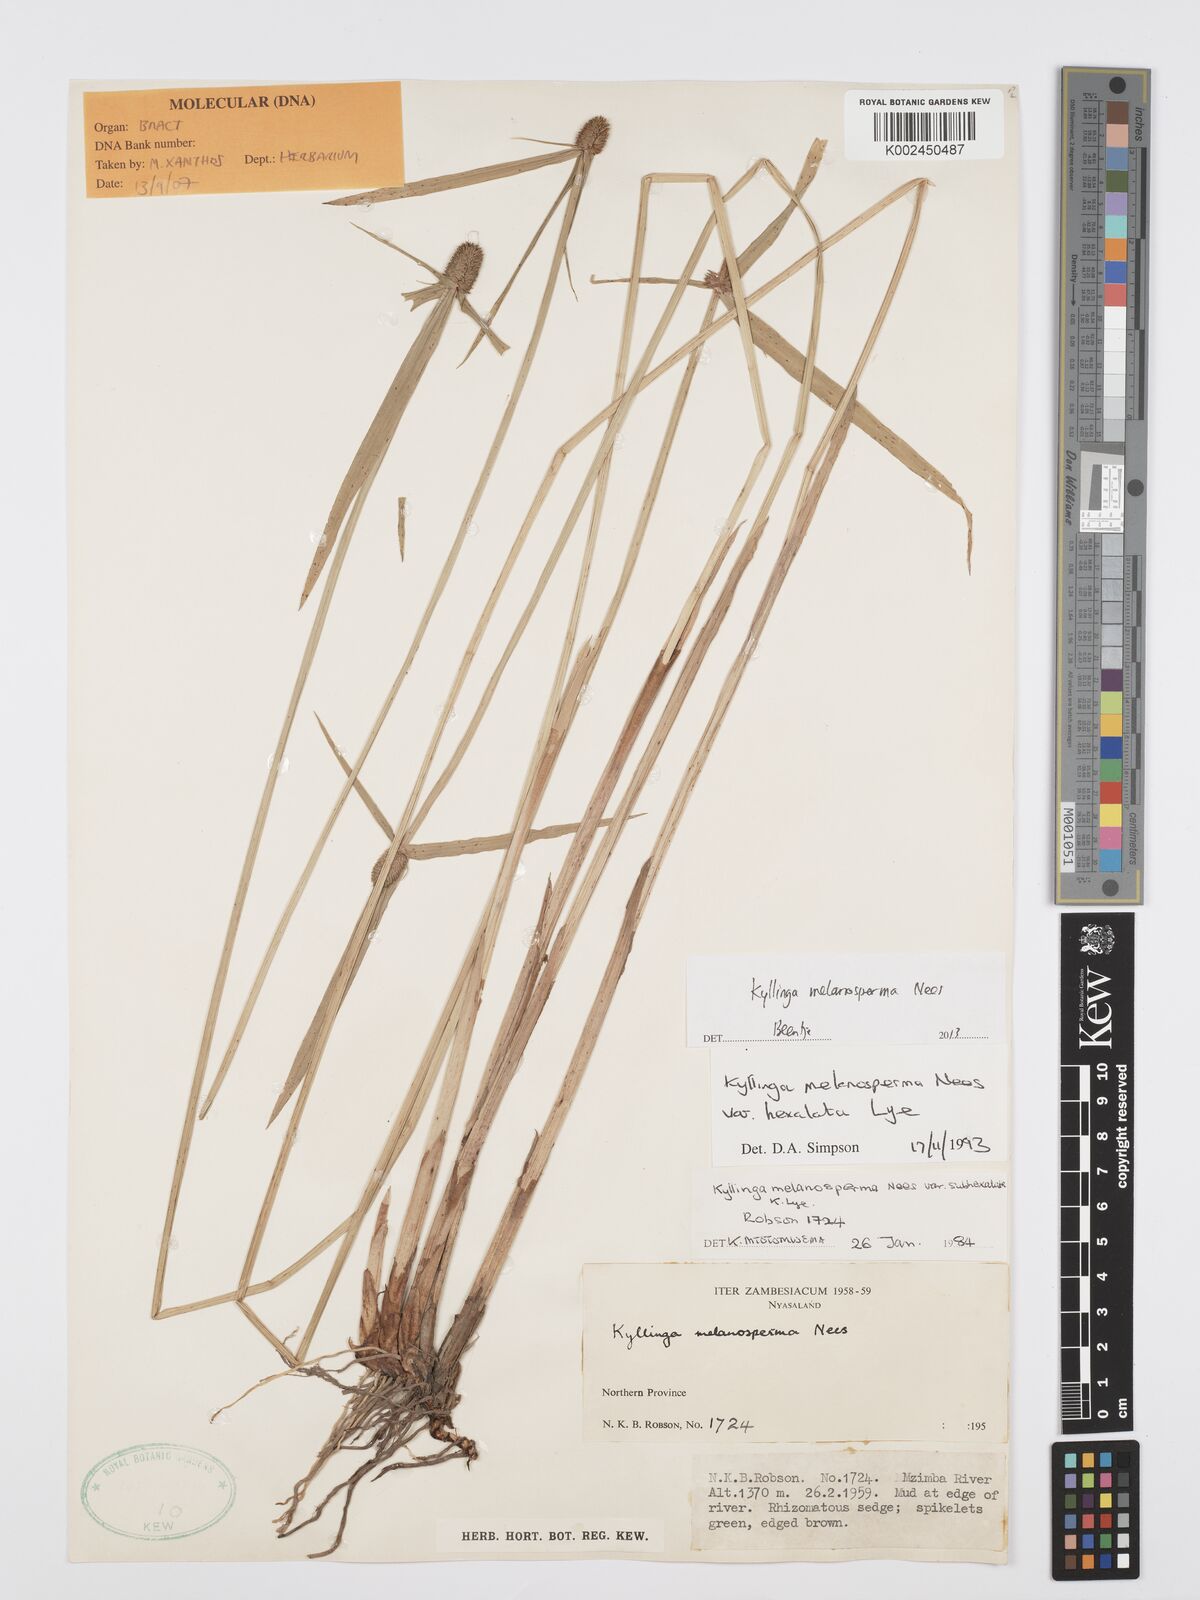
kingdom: Plantae
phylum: Tracheophyta
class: Liliopsida
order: Poales
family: Cyperaceae
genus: Cyperus
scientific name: Cyperus melanospermus
